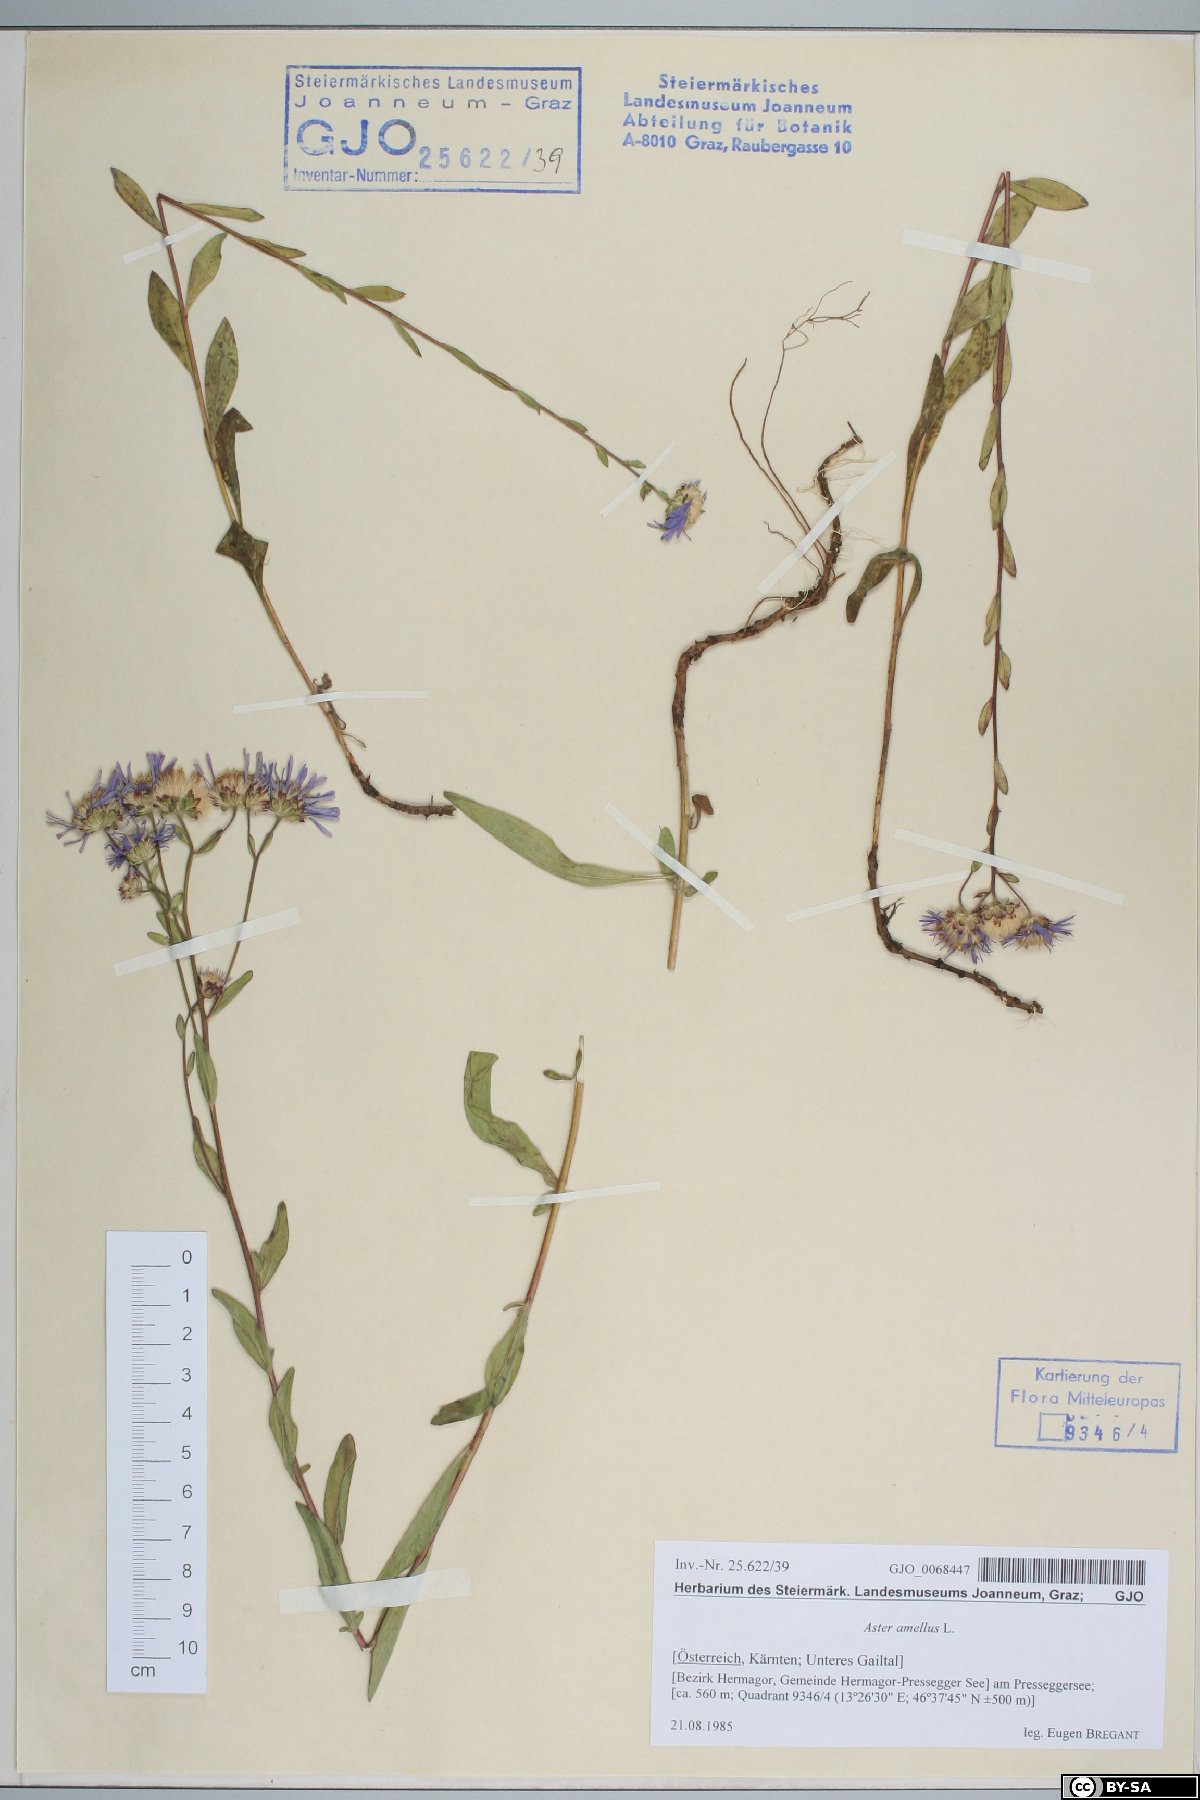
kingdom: Plantae
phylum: Tracheophyta
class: Magnoliopsida
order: Asterales
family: Asteraceae
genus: Aster
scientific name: Aster amellus
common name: European michaelmas daisy
